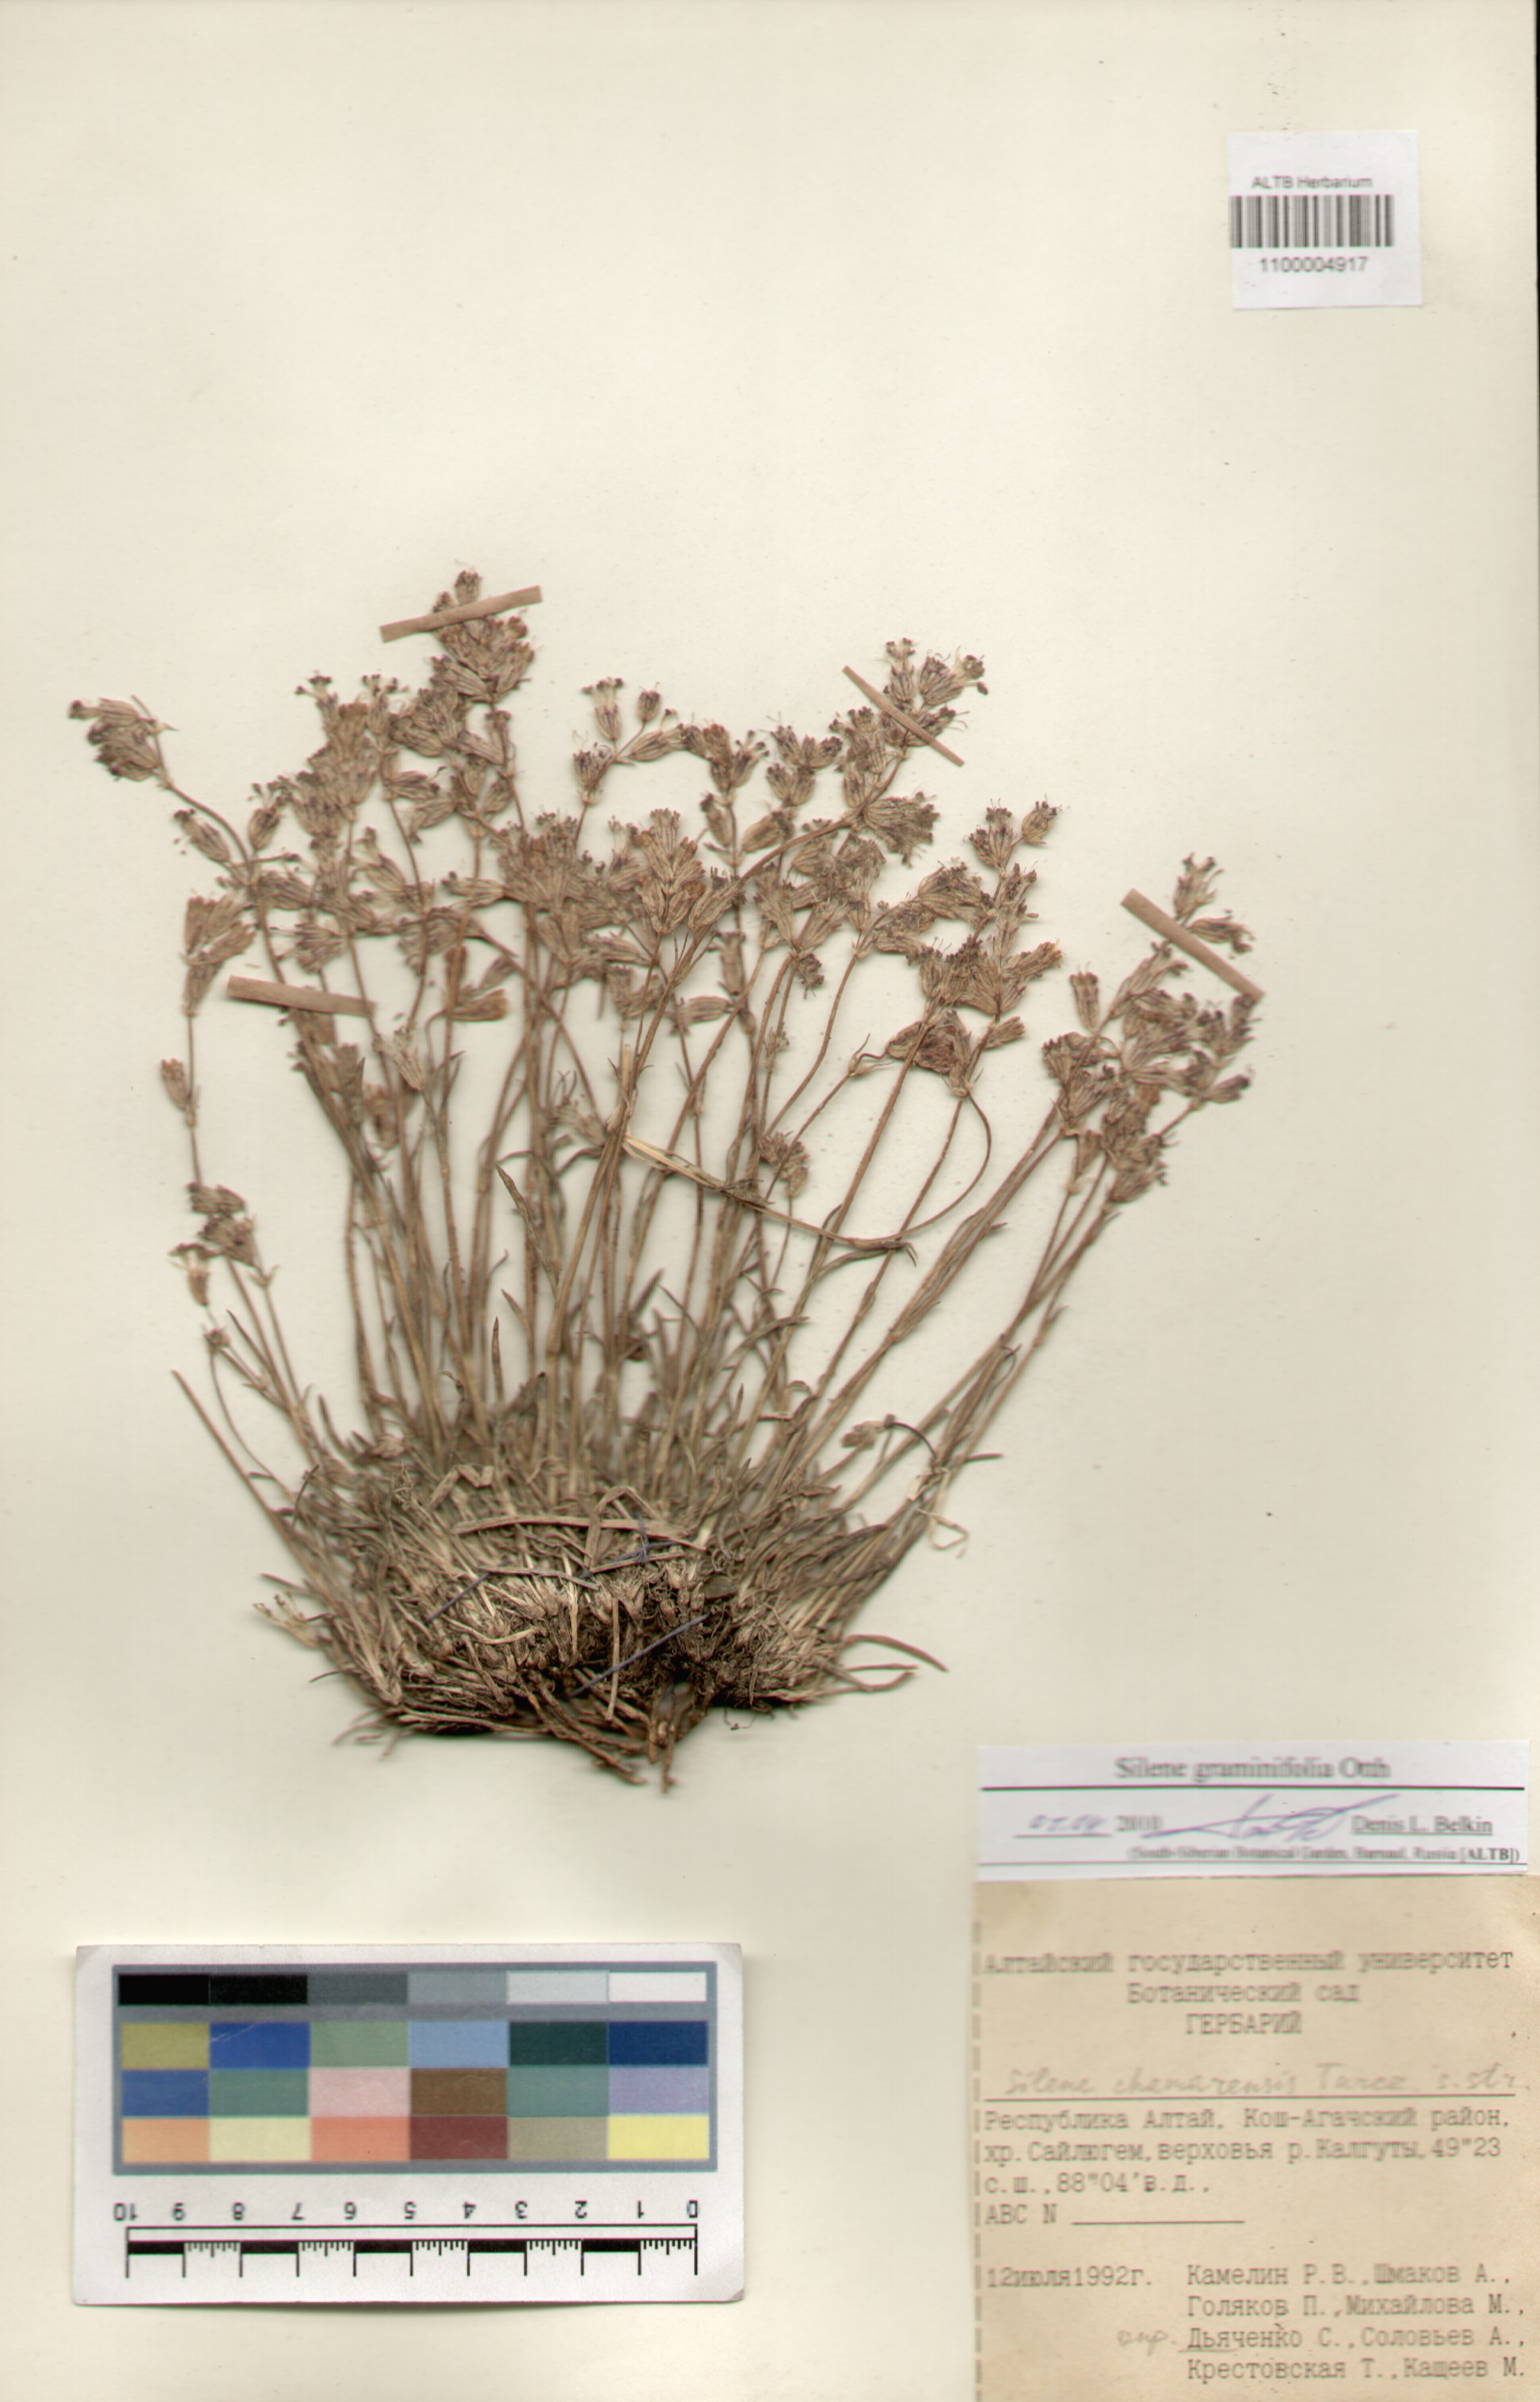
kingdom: Plantae
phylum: Tracheophyta
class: Magnoliopsida
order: Caryophyllales
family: Caryophyllaceae
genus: Silene
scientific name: Silene graminifolia
